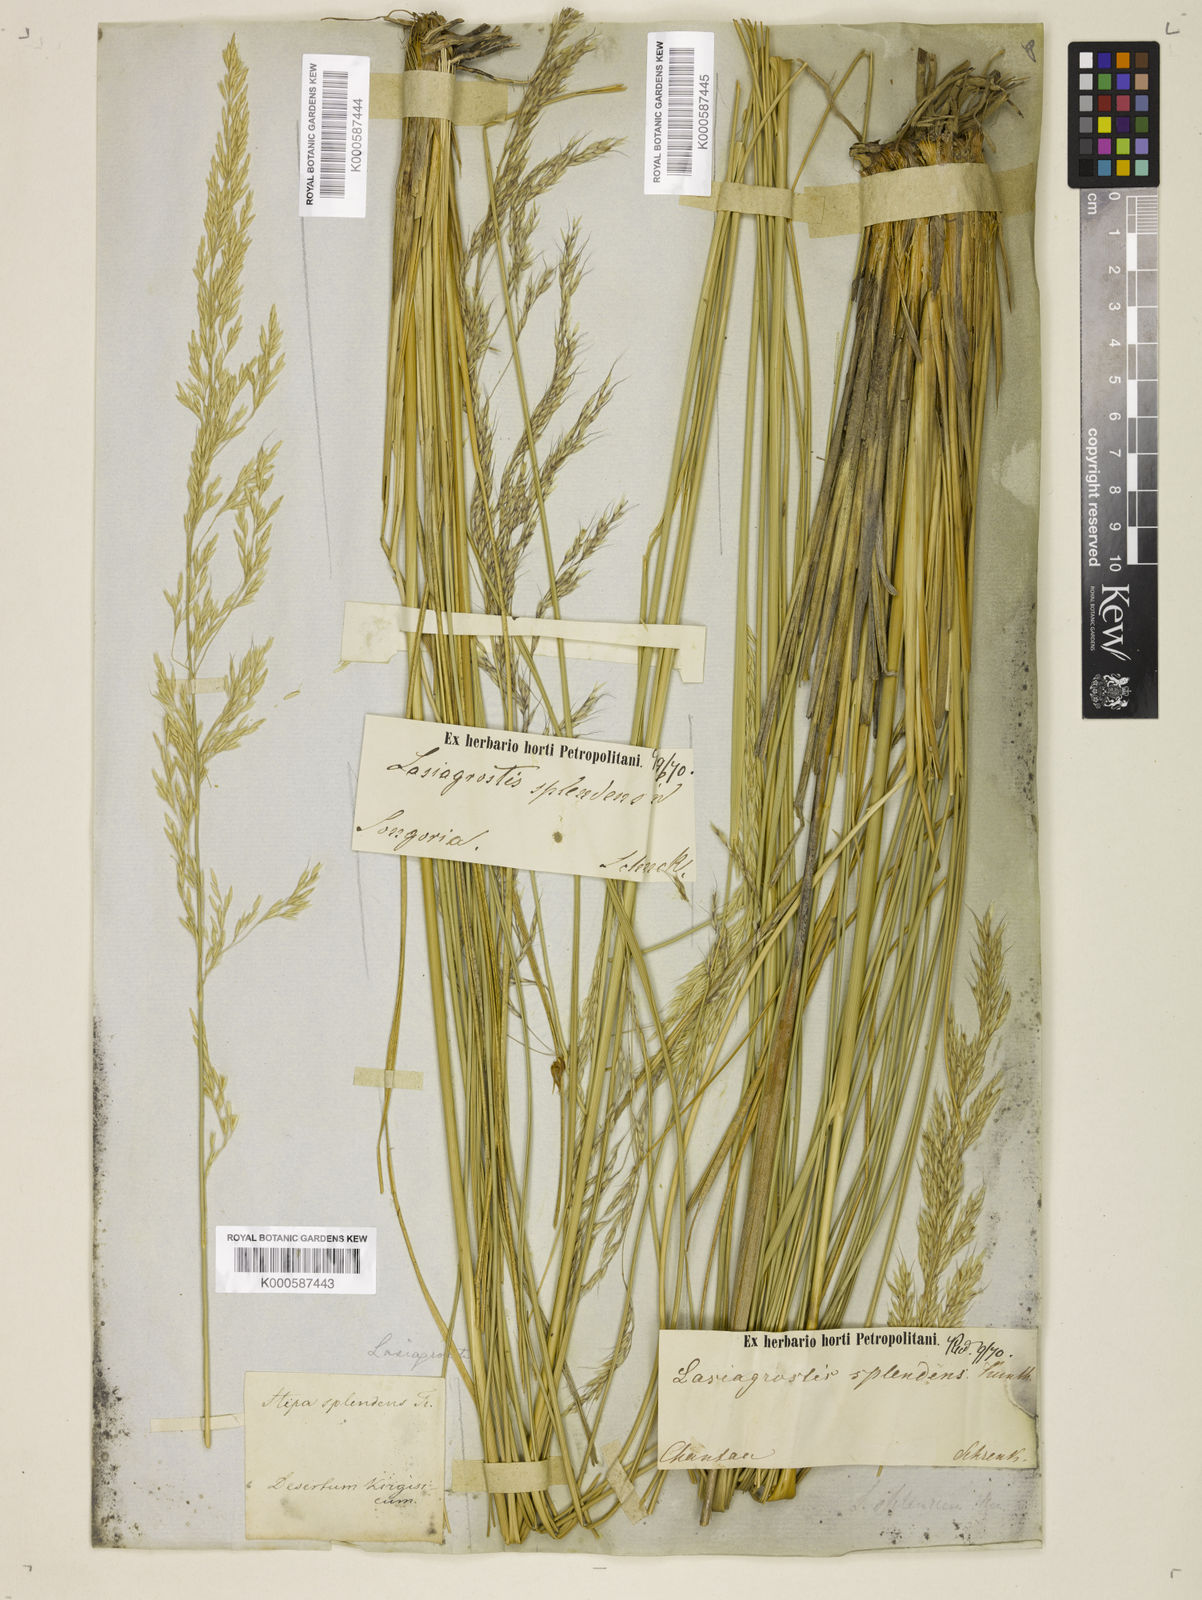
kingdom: Plantae
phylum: Tracheophyta
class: Liliopsida
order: Poales
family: Poaceae
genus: Neotrinia
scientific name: Neotrinia splendens
